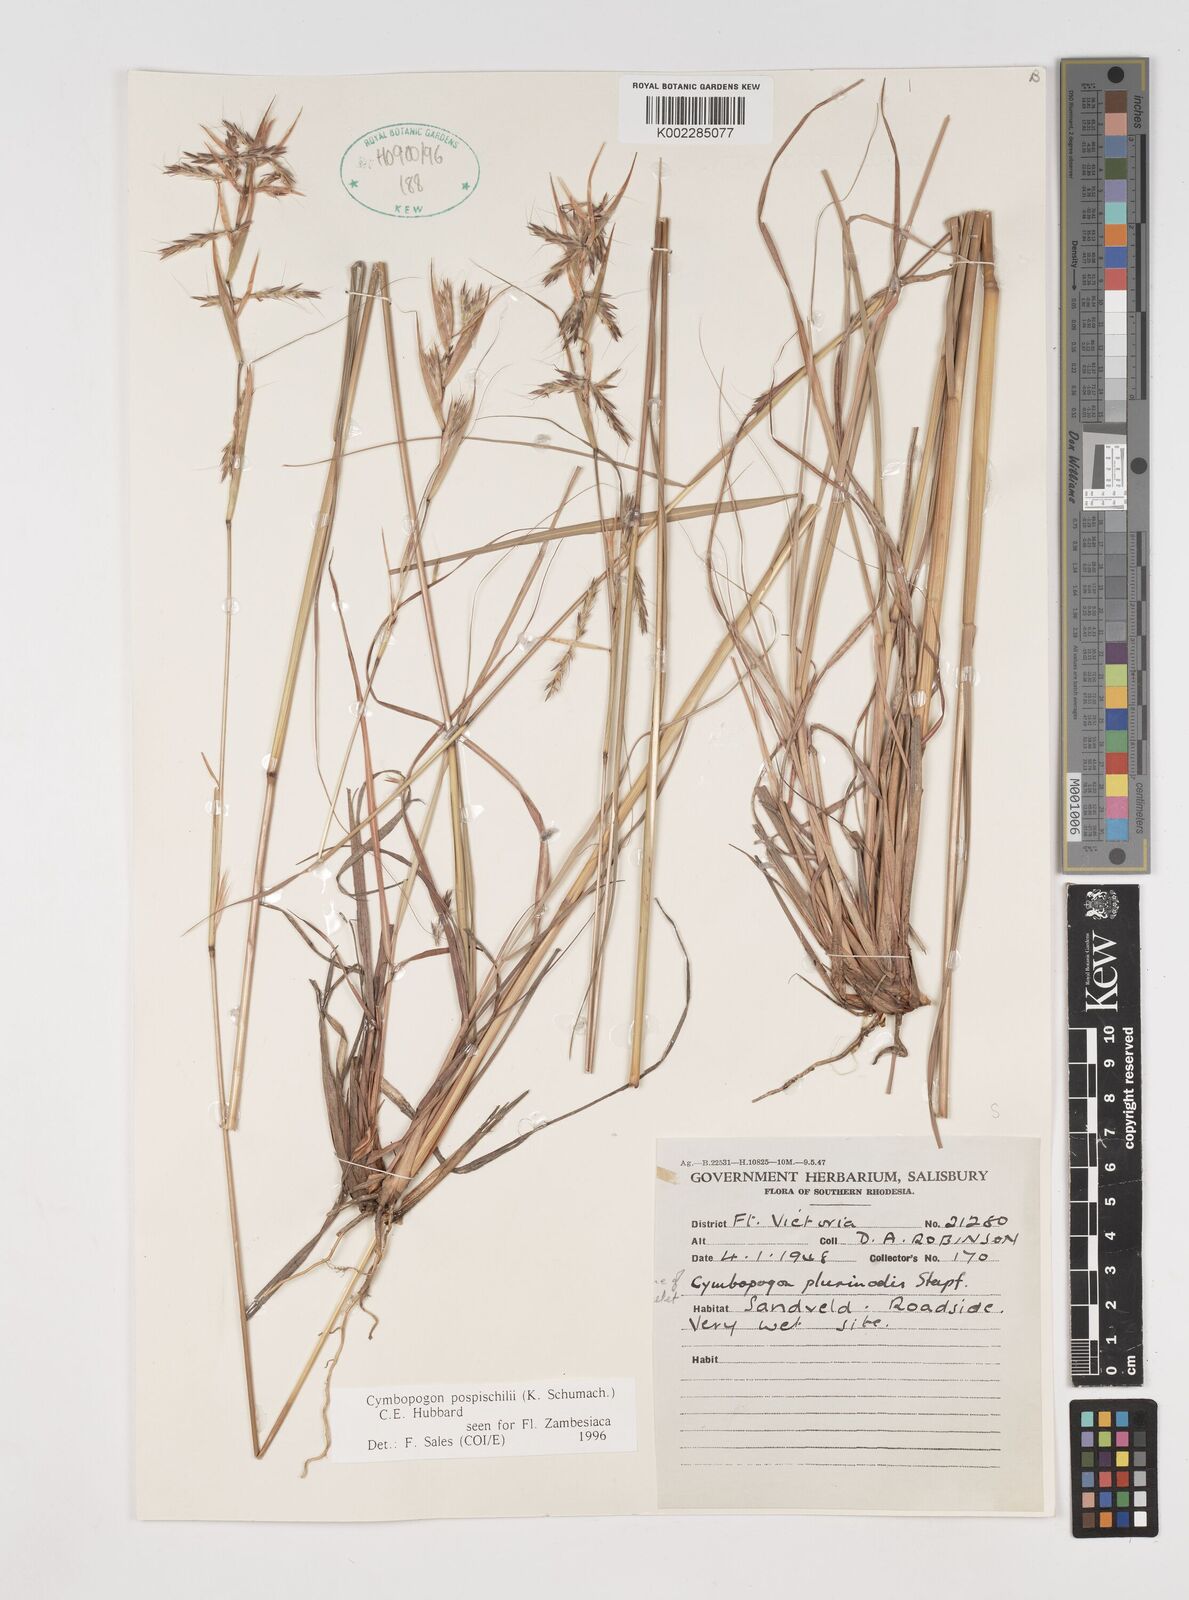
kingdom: Plantae
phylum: Tracheophyta
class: Liliopsida
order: Poales
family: Poaceae
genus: Cymbopogon
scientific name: Cymbopogon pospischilii
